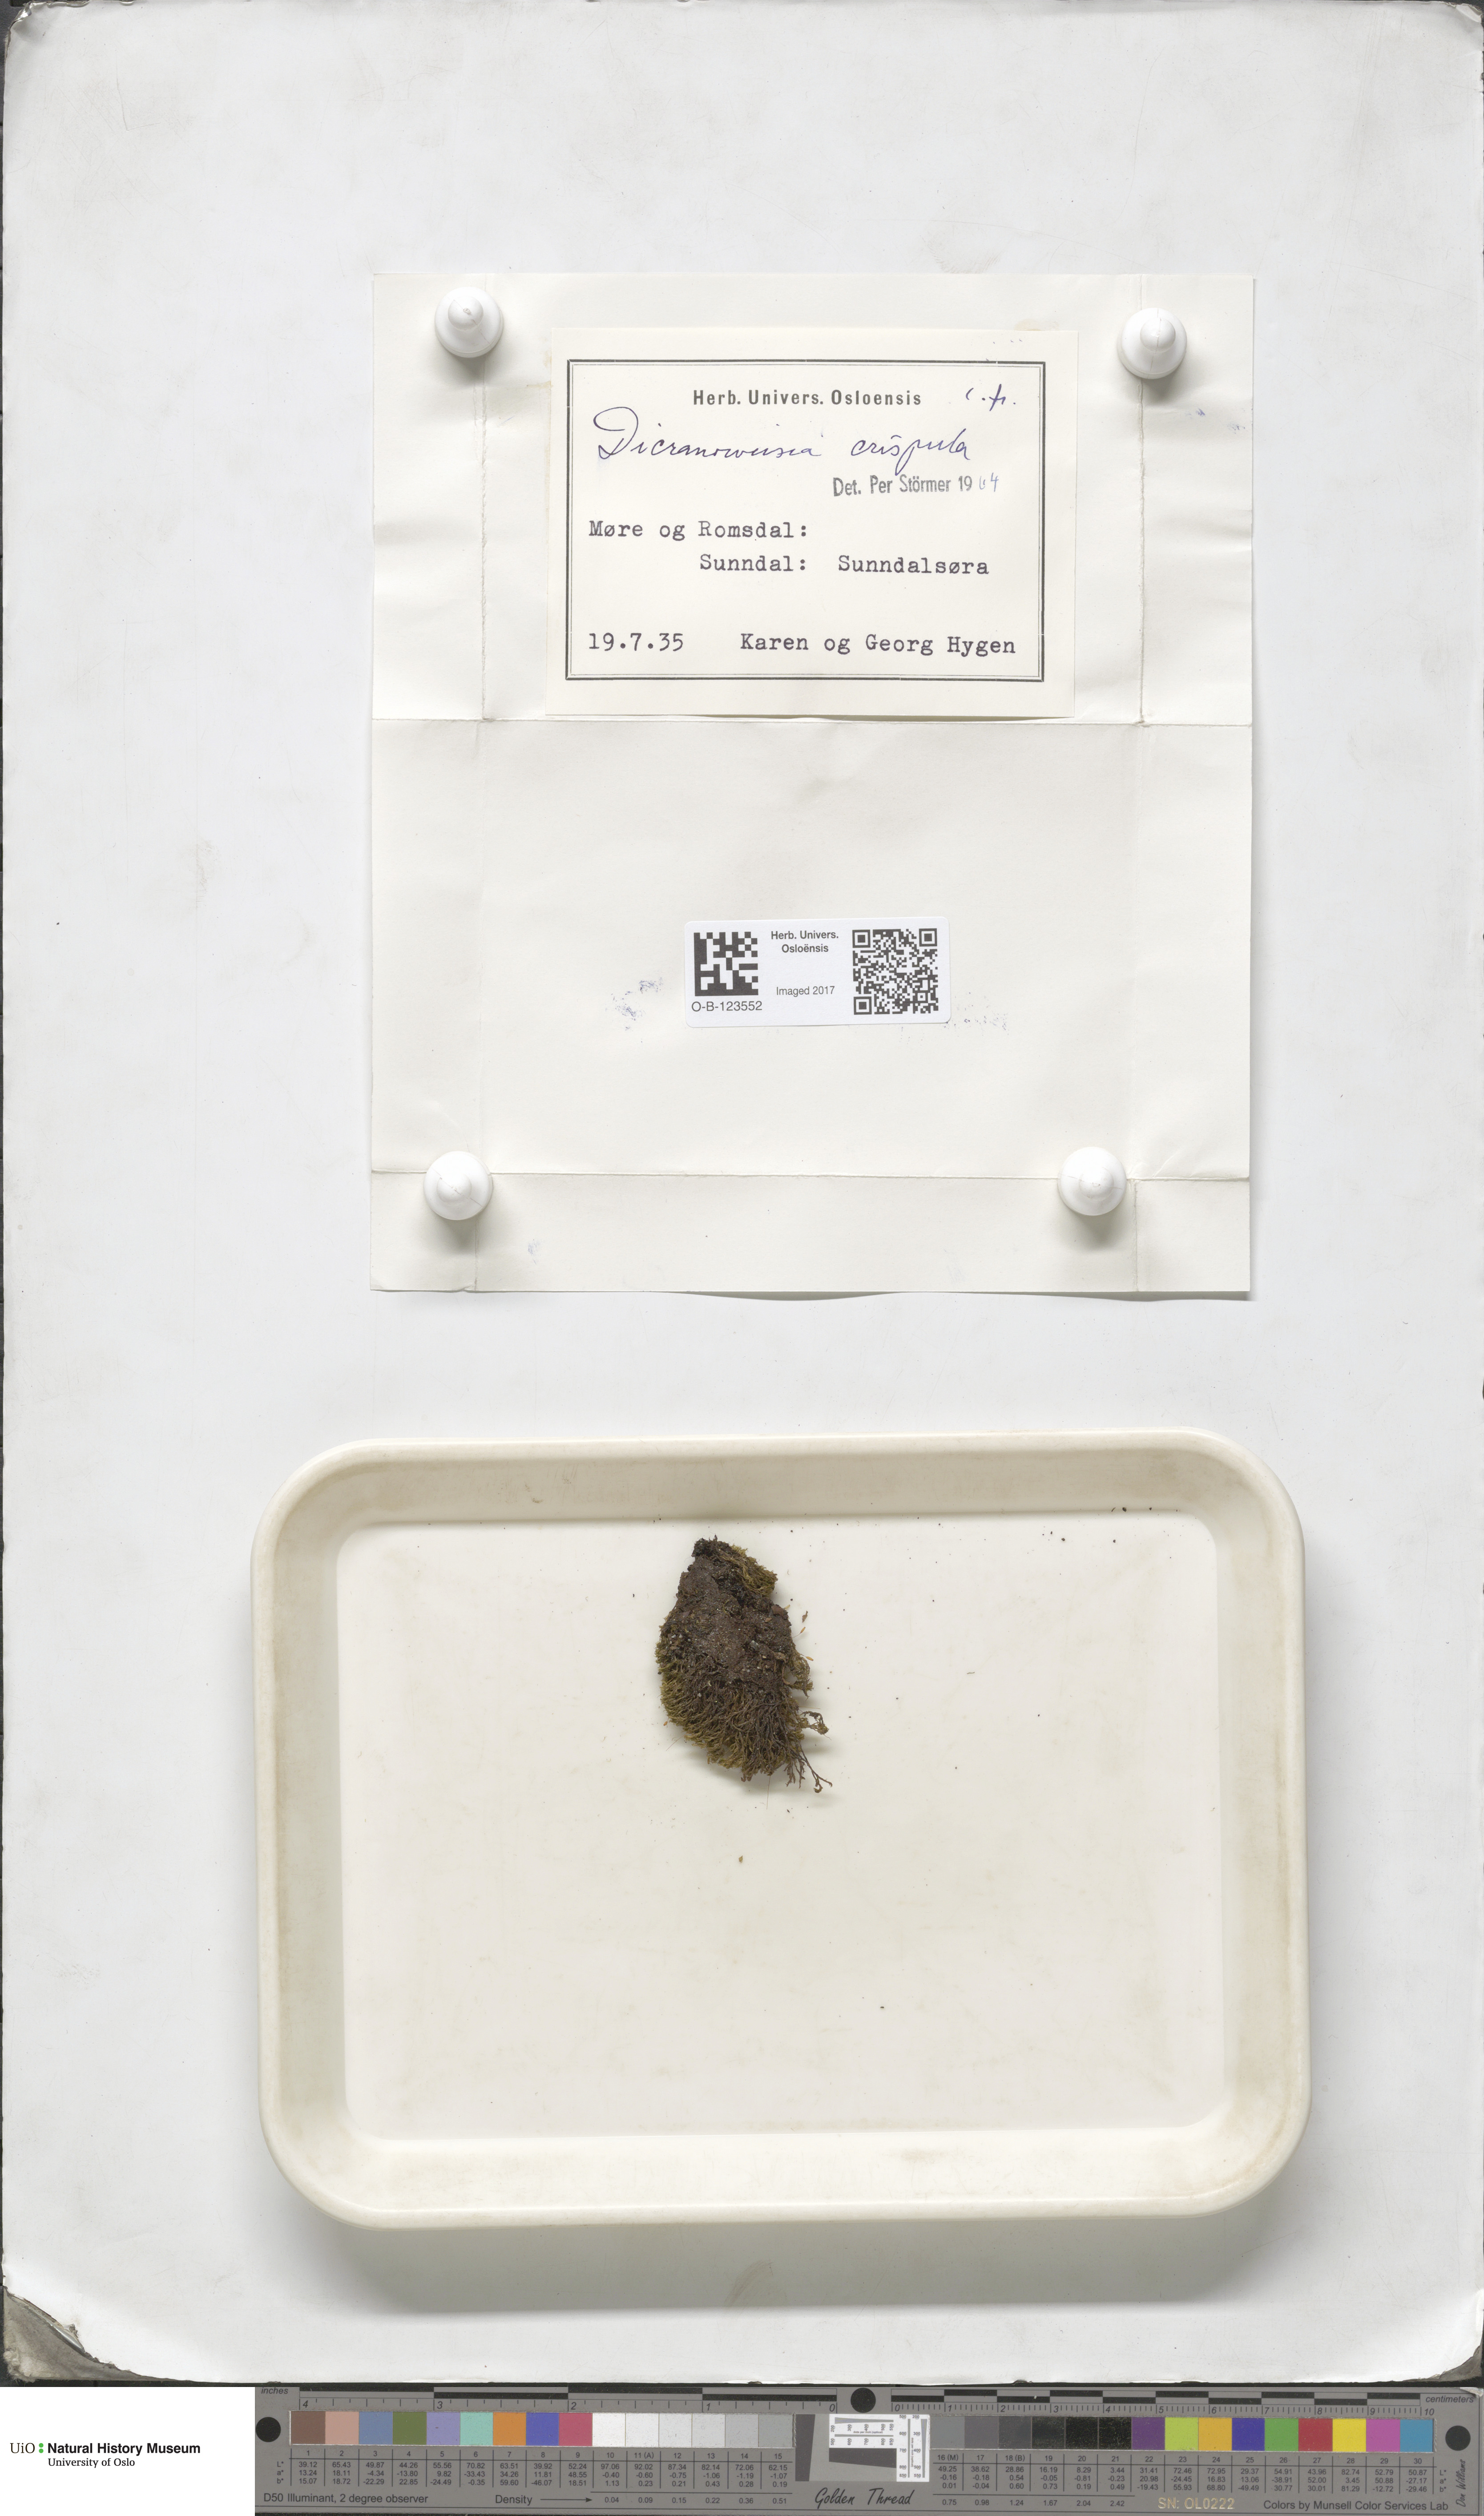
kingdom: Plantae
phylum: Bryophyta
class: Bryopsida
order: Scouleriales
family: Hymenolomataceae
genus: Hymenoloma
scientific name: Hymenoloma crispulum
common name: Mountain pincushion
